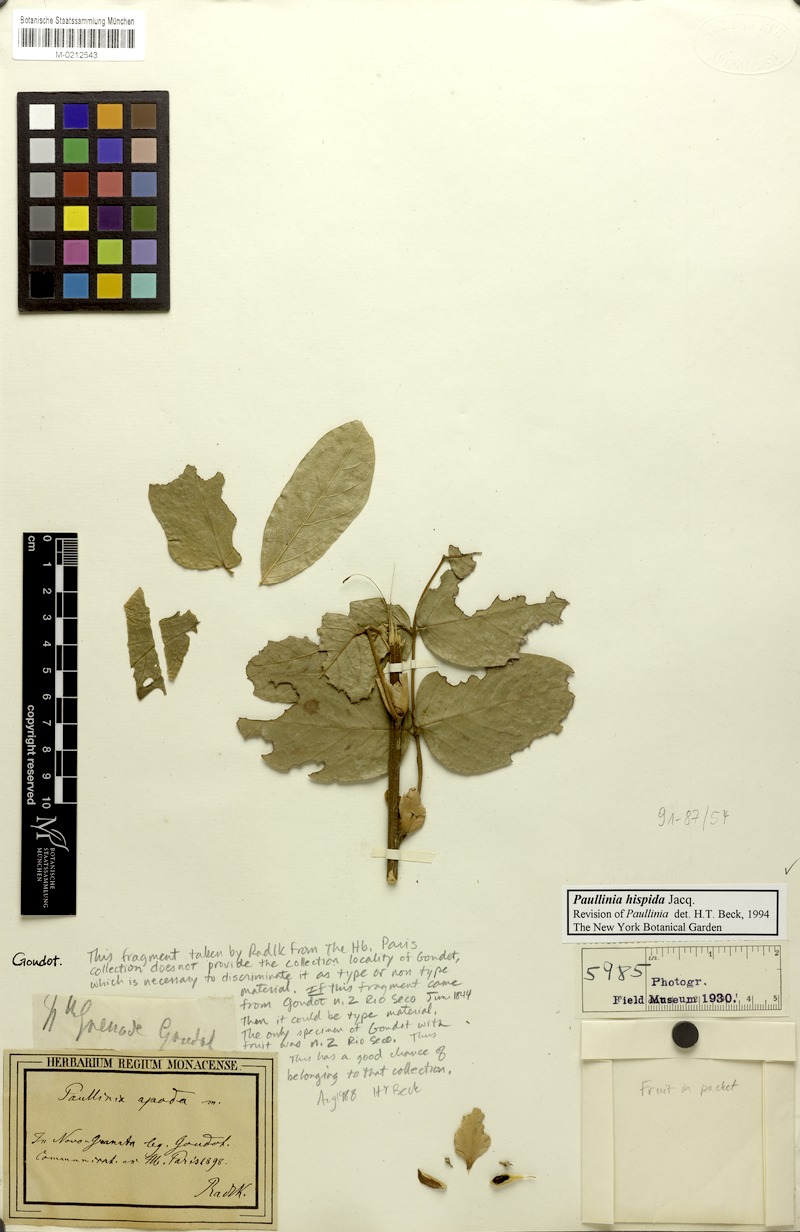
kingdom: Plantae
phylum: Tracheophyta
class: Magnoliopsida
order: Sapindales
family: Sapindaceae
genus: Paullinia
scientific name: Paullinia hispida
